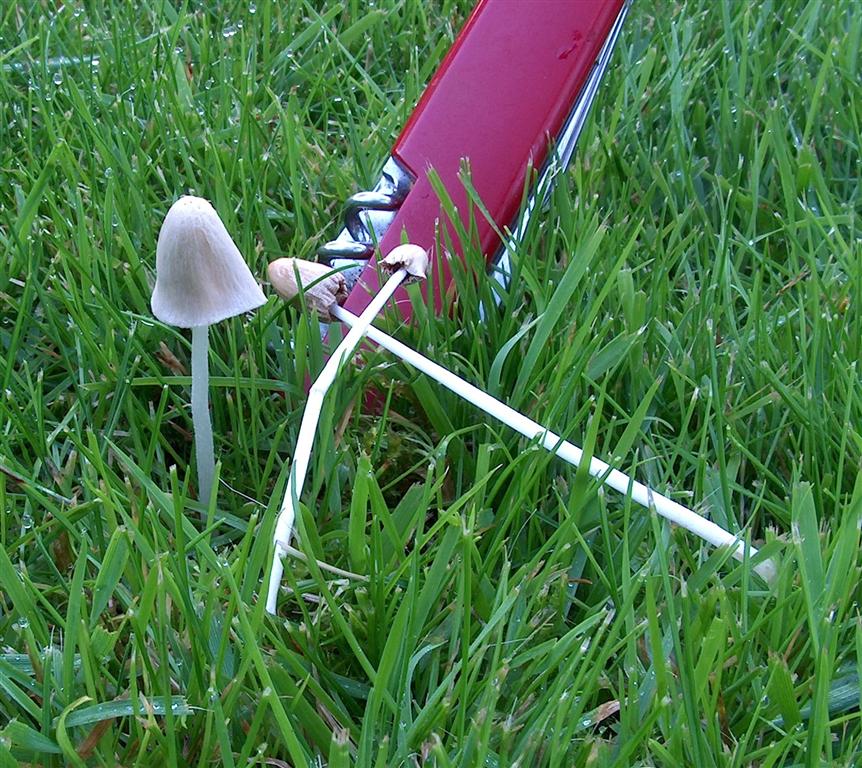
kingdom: Fungi
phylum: Basidiomycota
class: Agaricomycetes
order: Agaricales
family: Bolbitiaceae
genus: Conocybe
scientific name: Conocybe apala
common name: mælkehvid keglehat
